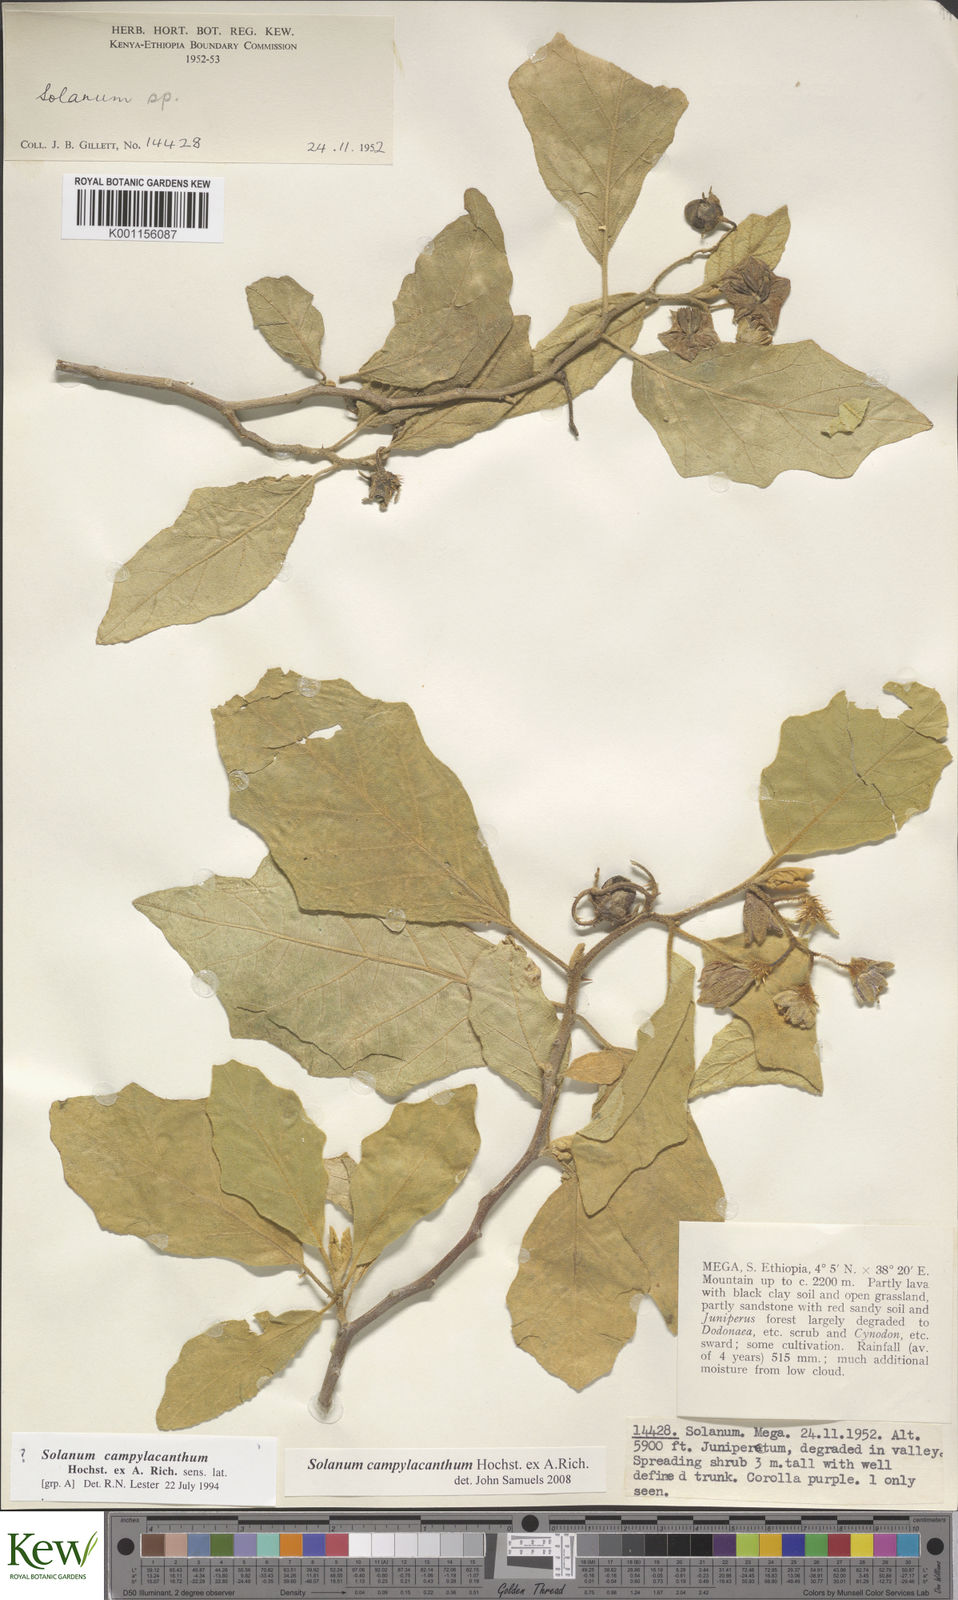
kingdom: Plantae
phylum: Tracheophyta
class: Magnoliopsida
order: Solanales
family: Solanaceae
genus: Solanum
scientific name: Solanum campylacanthum
